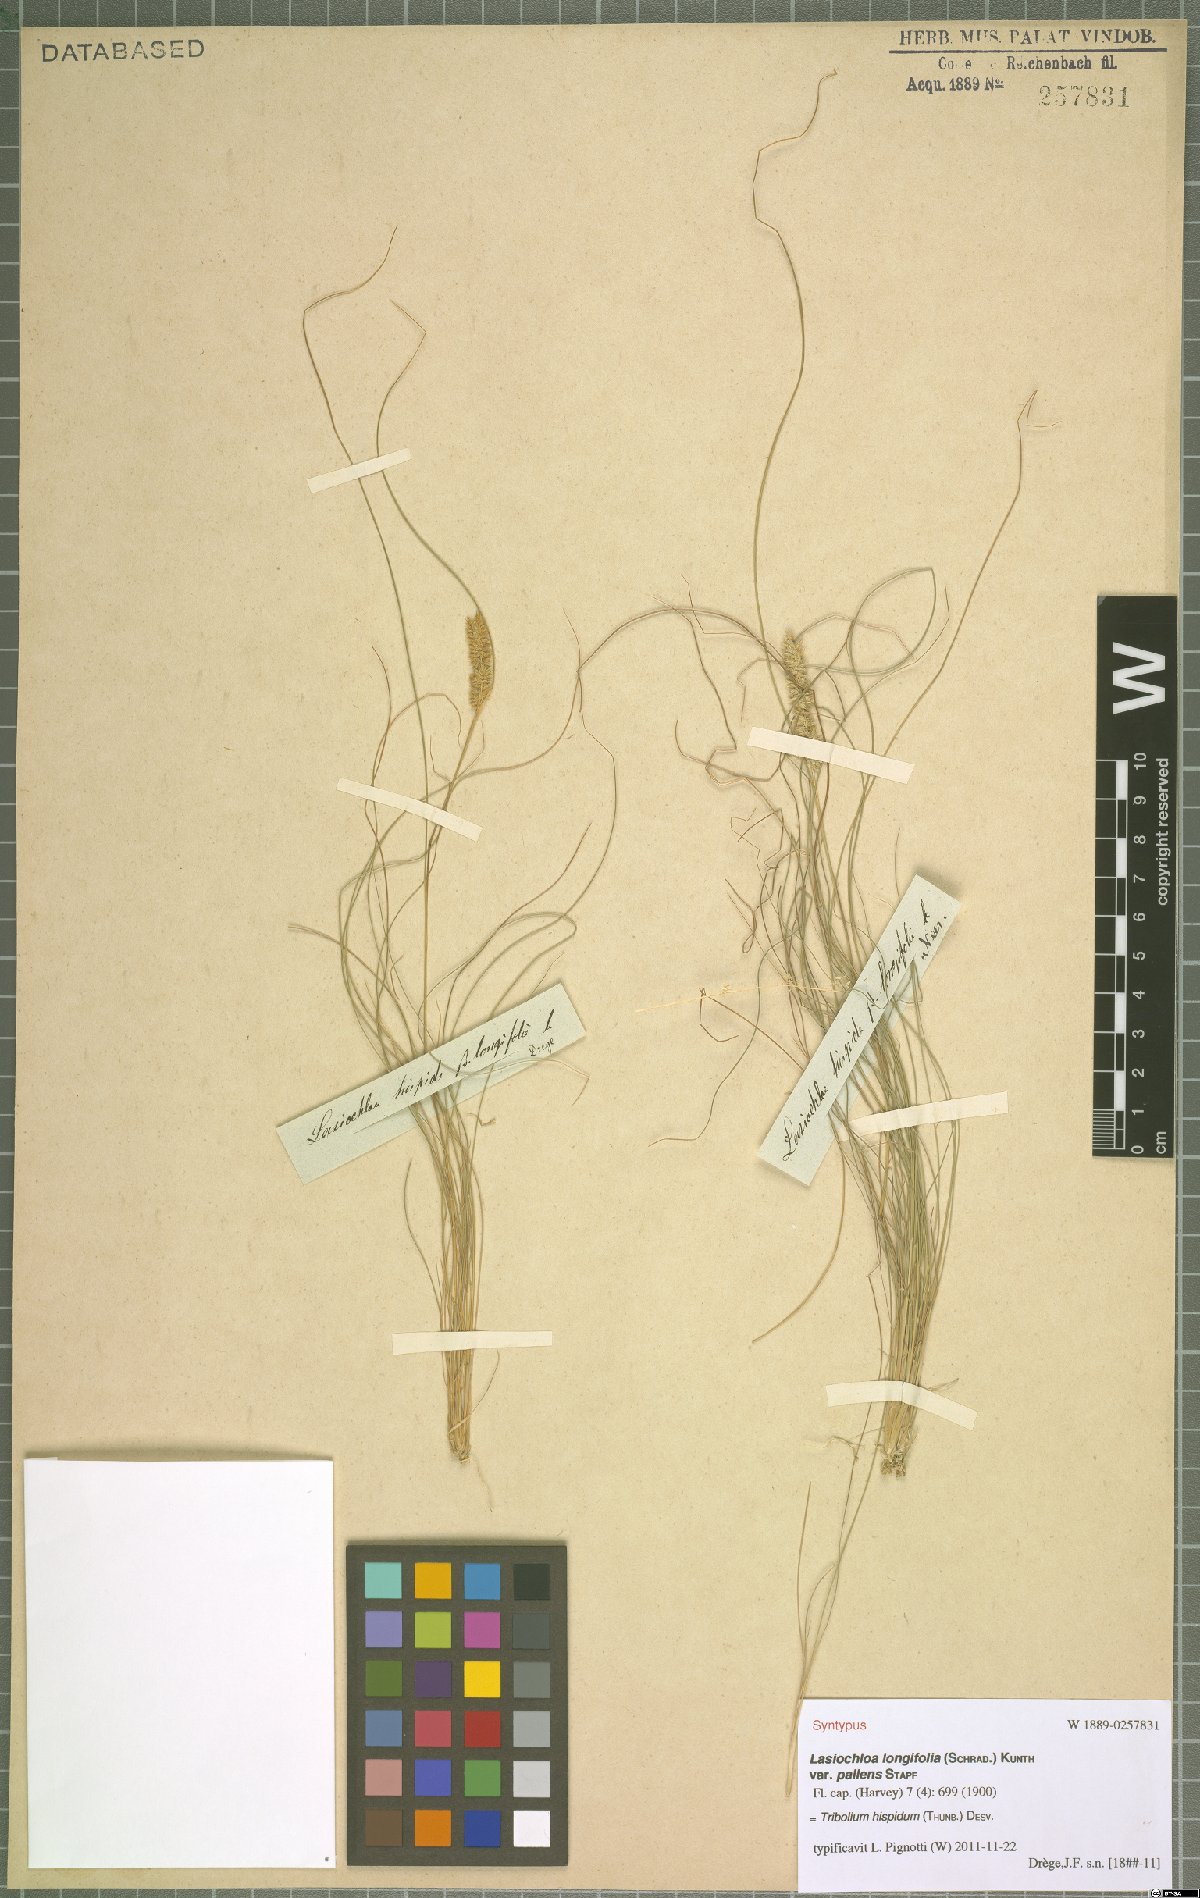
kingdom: Plantae
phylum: Tracheophyta
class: Liliopsida
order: Poales
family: Poaceae
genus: Tribolium
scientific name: Tribolium hispidum
